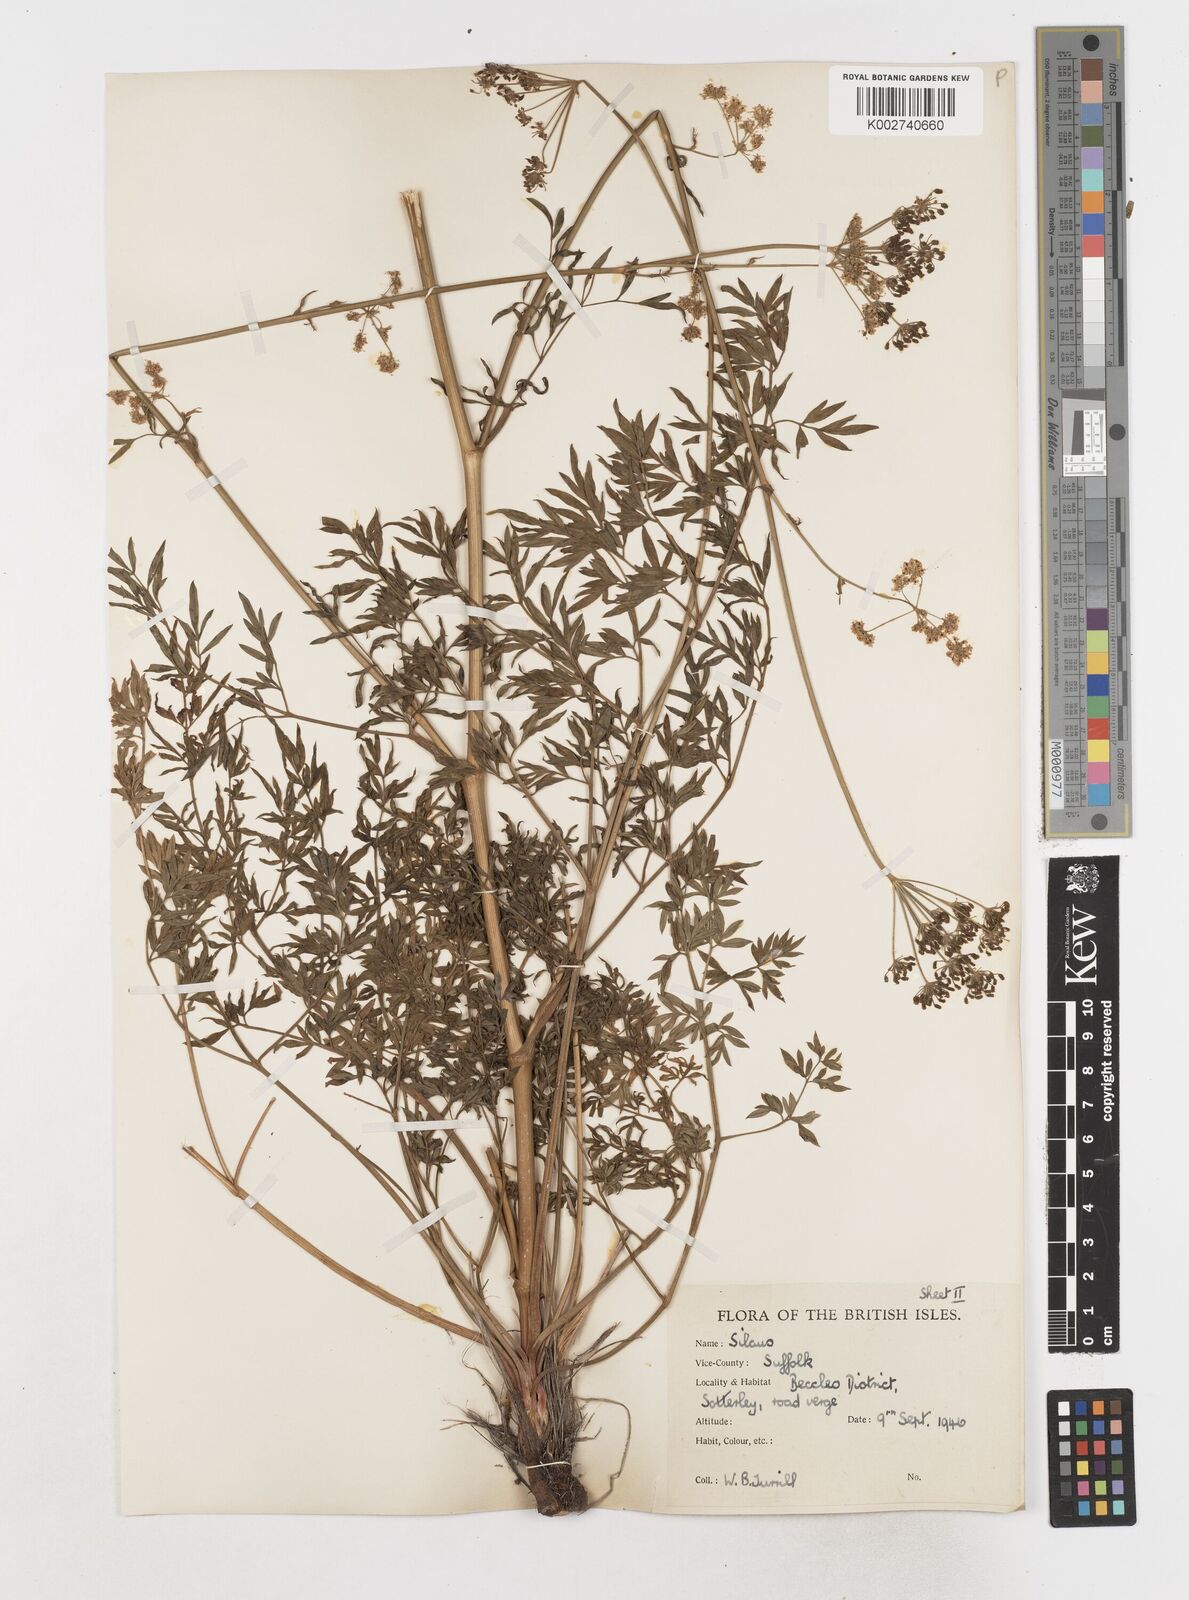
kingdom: Plantae
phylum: Tracheophyta
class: Magnoliopsida
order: Apiales
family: Apiaceae
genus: Silaum
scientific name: Silaum silaus
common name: Pepper-saxifrage
